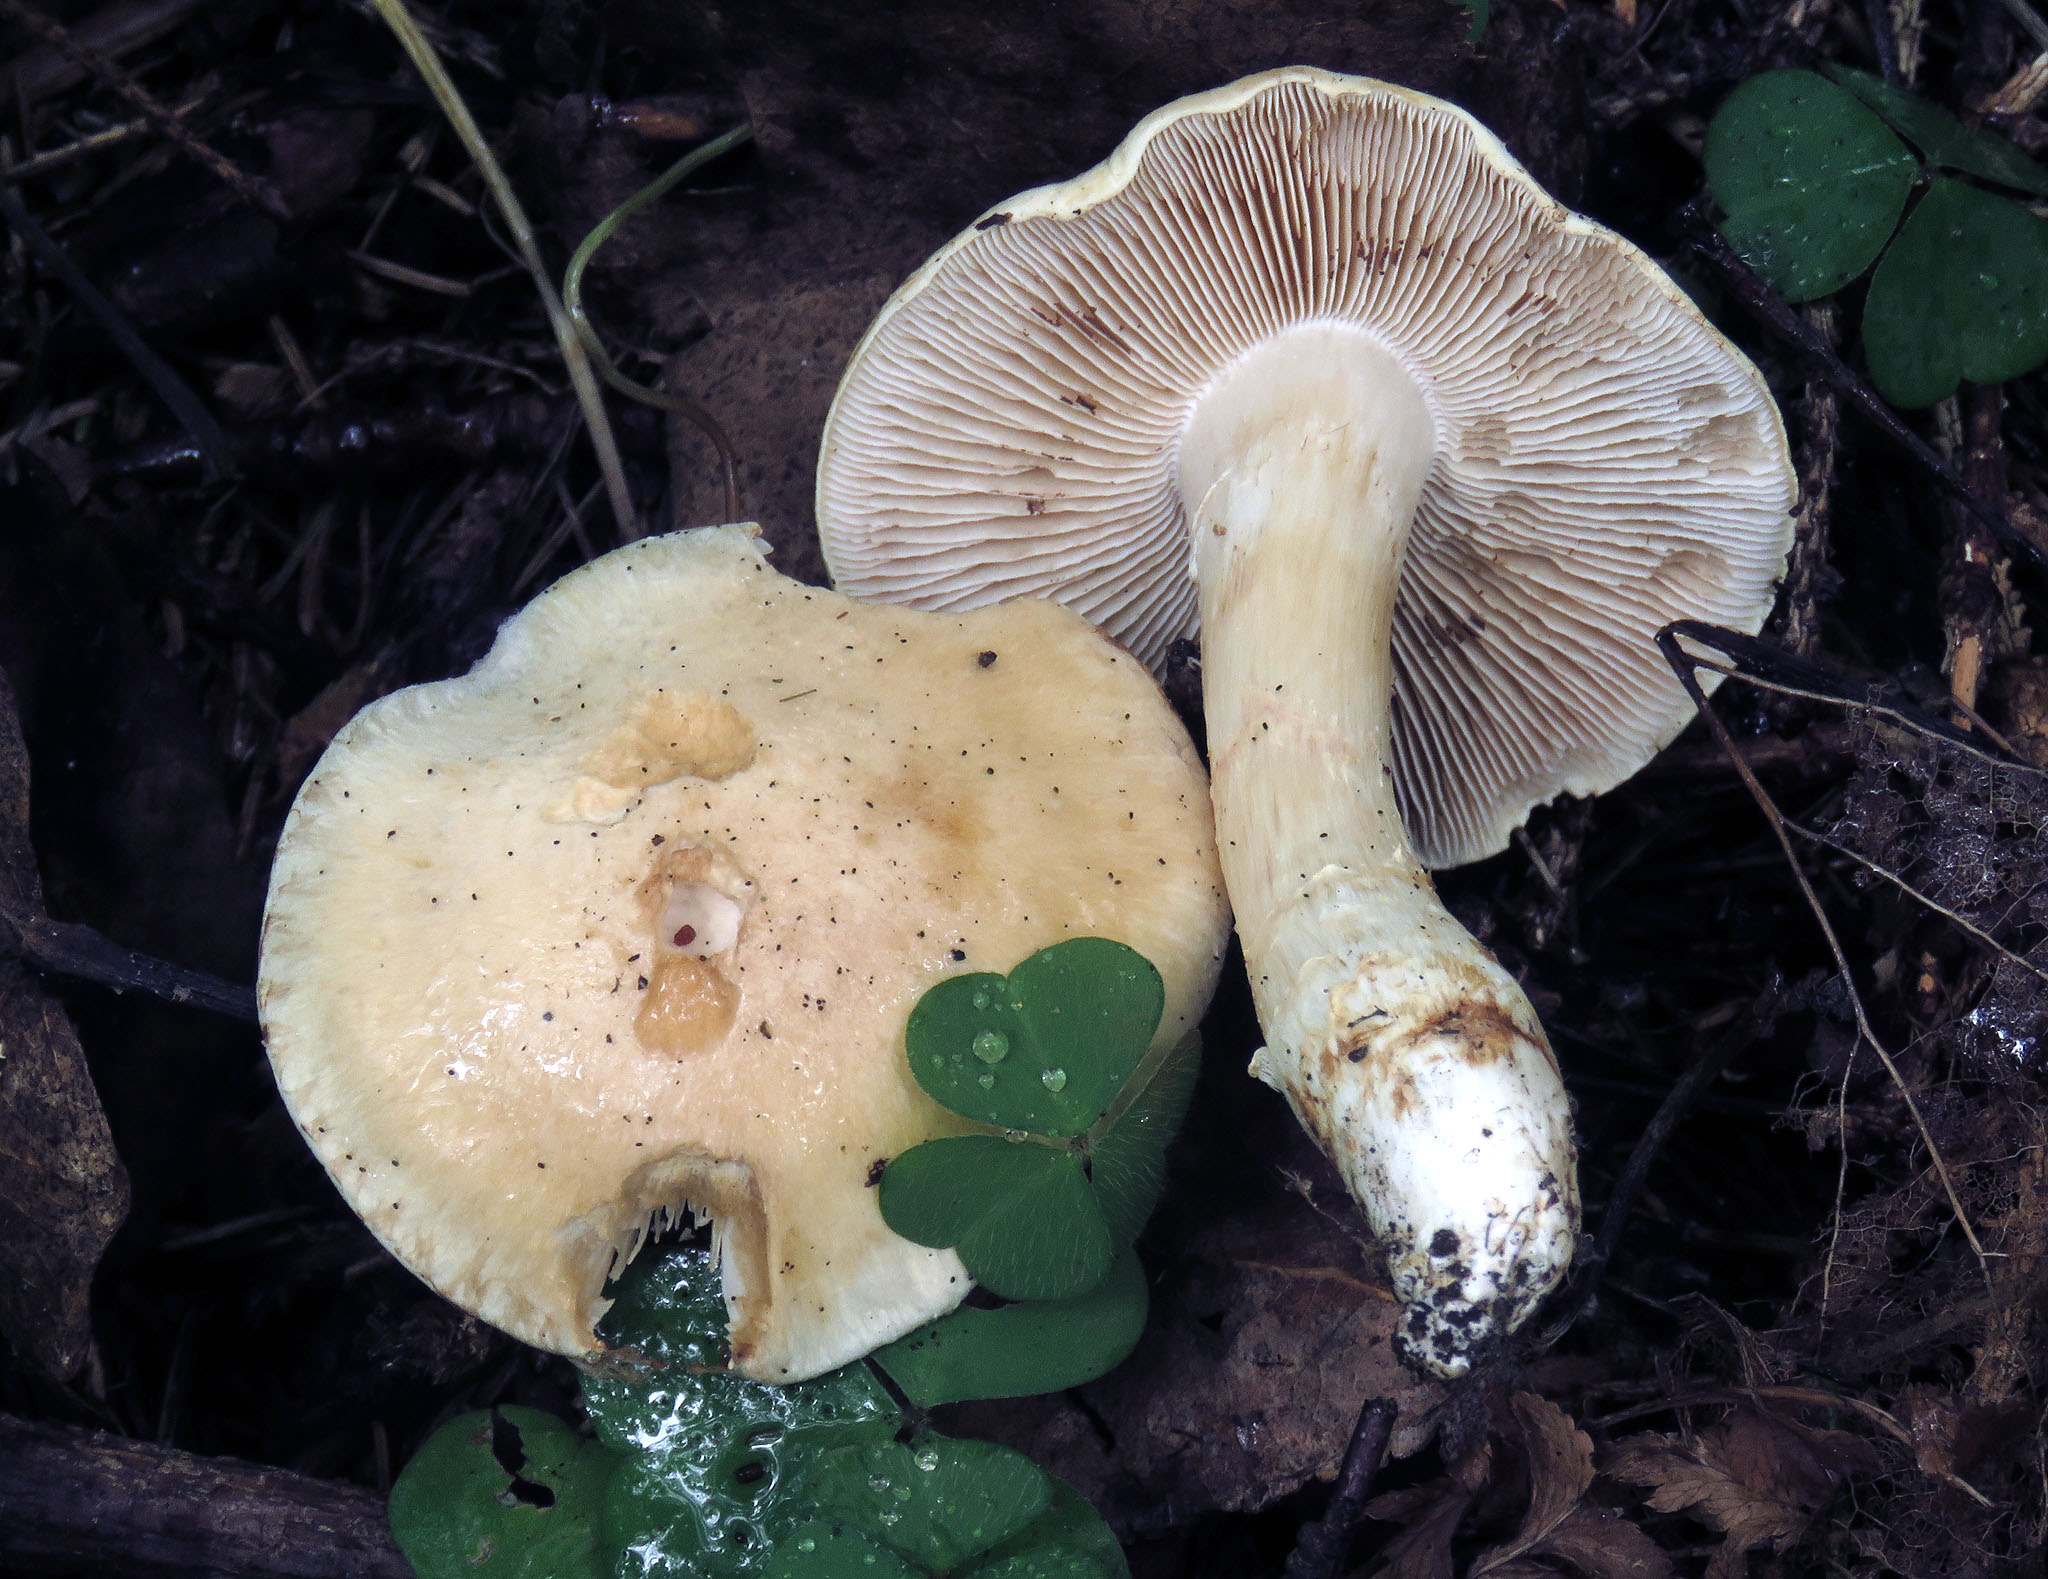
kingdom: Fungi
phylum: Basidiomycota
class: Agaricomycetes
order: Agaricales
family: Cortinariaceae
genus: Phlegmacium
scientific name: Phlegmacium argutum
